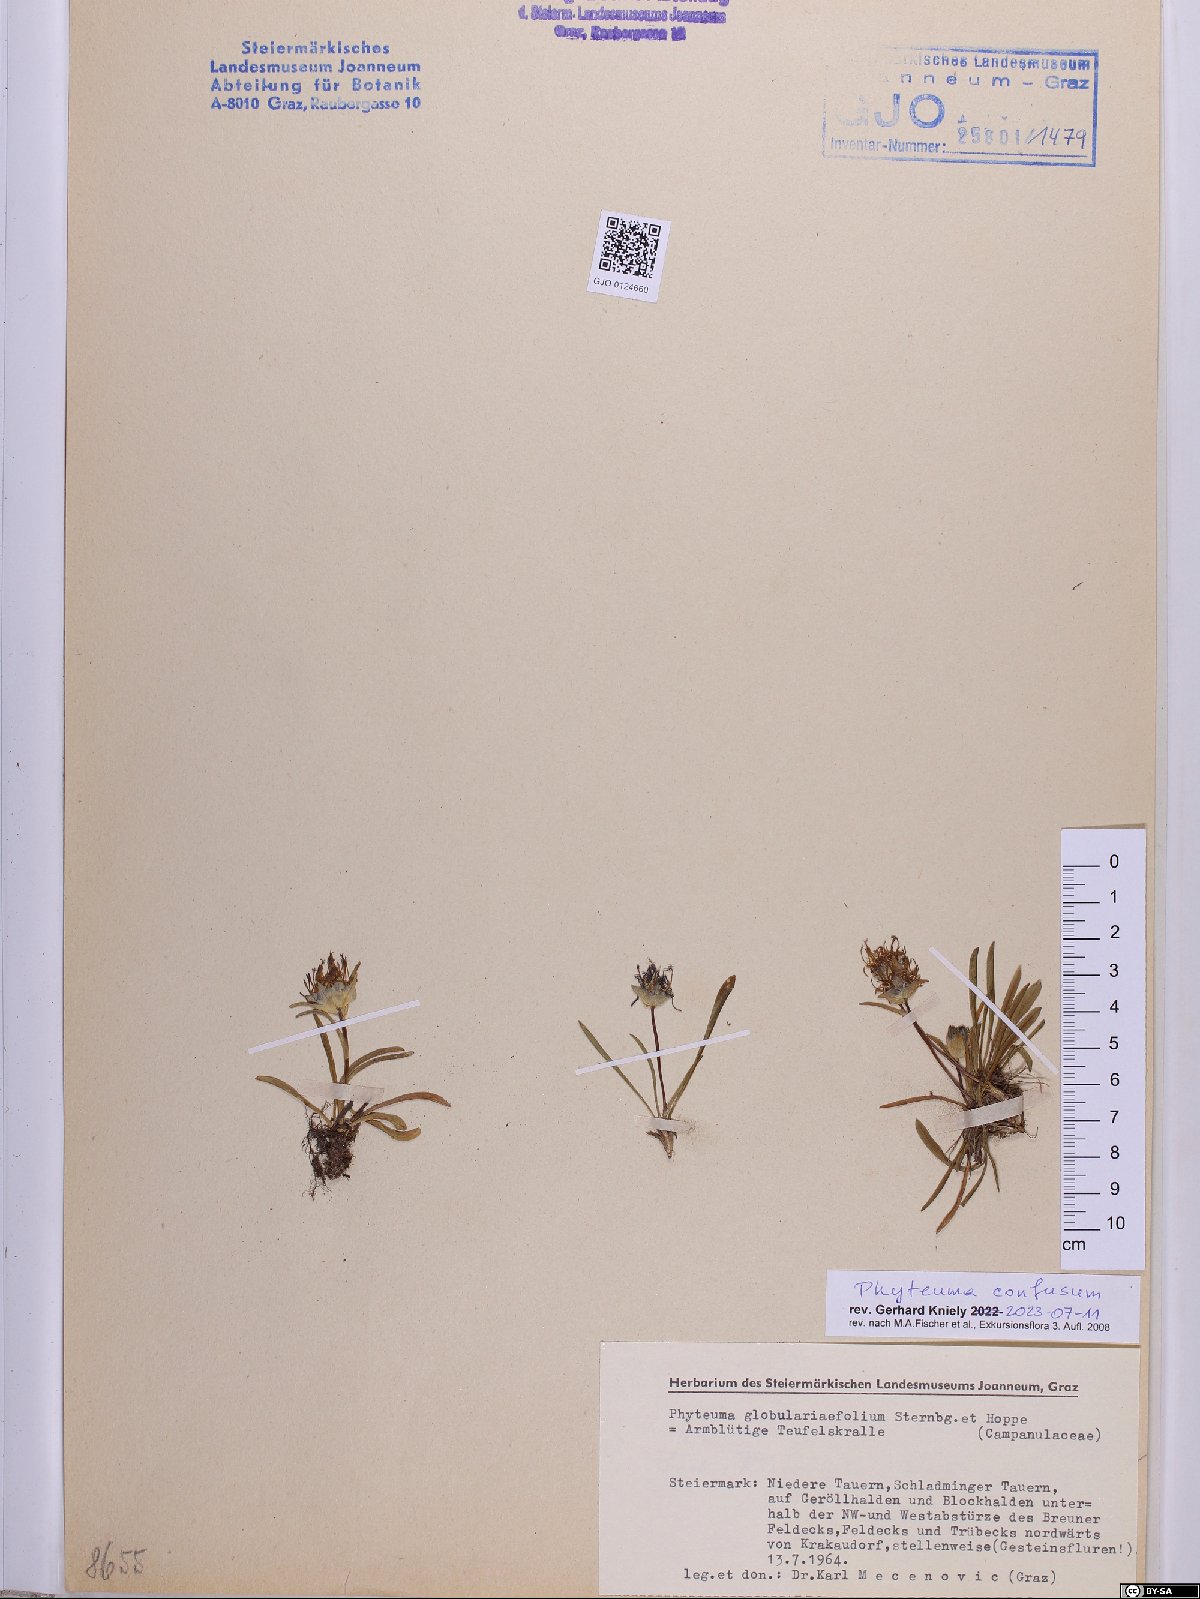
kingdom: Plantae
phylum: Tracheophyta
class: Magnoliopsida
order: Asterales
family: Campanulaceae
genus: Phyteuma
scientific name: Phyteuma confusum
